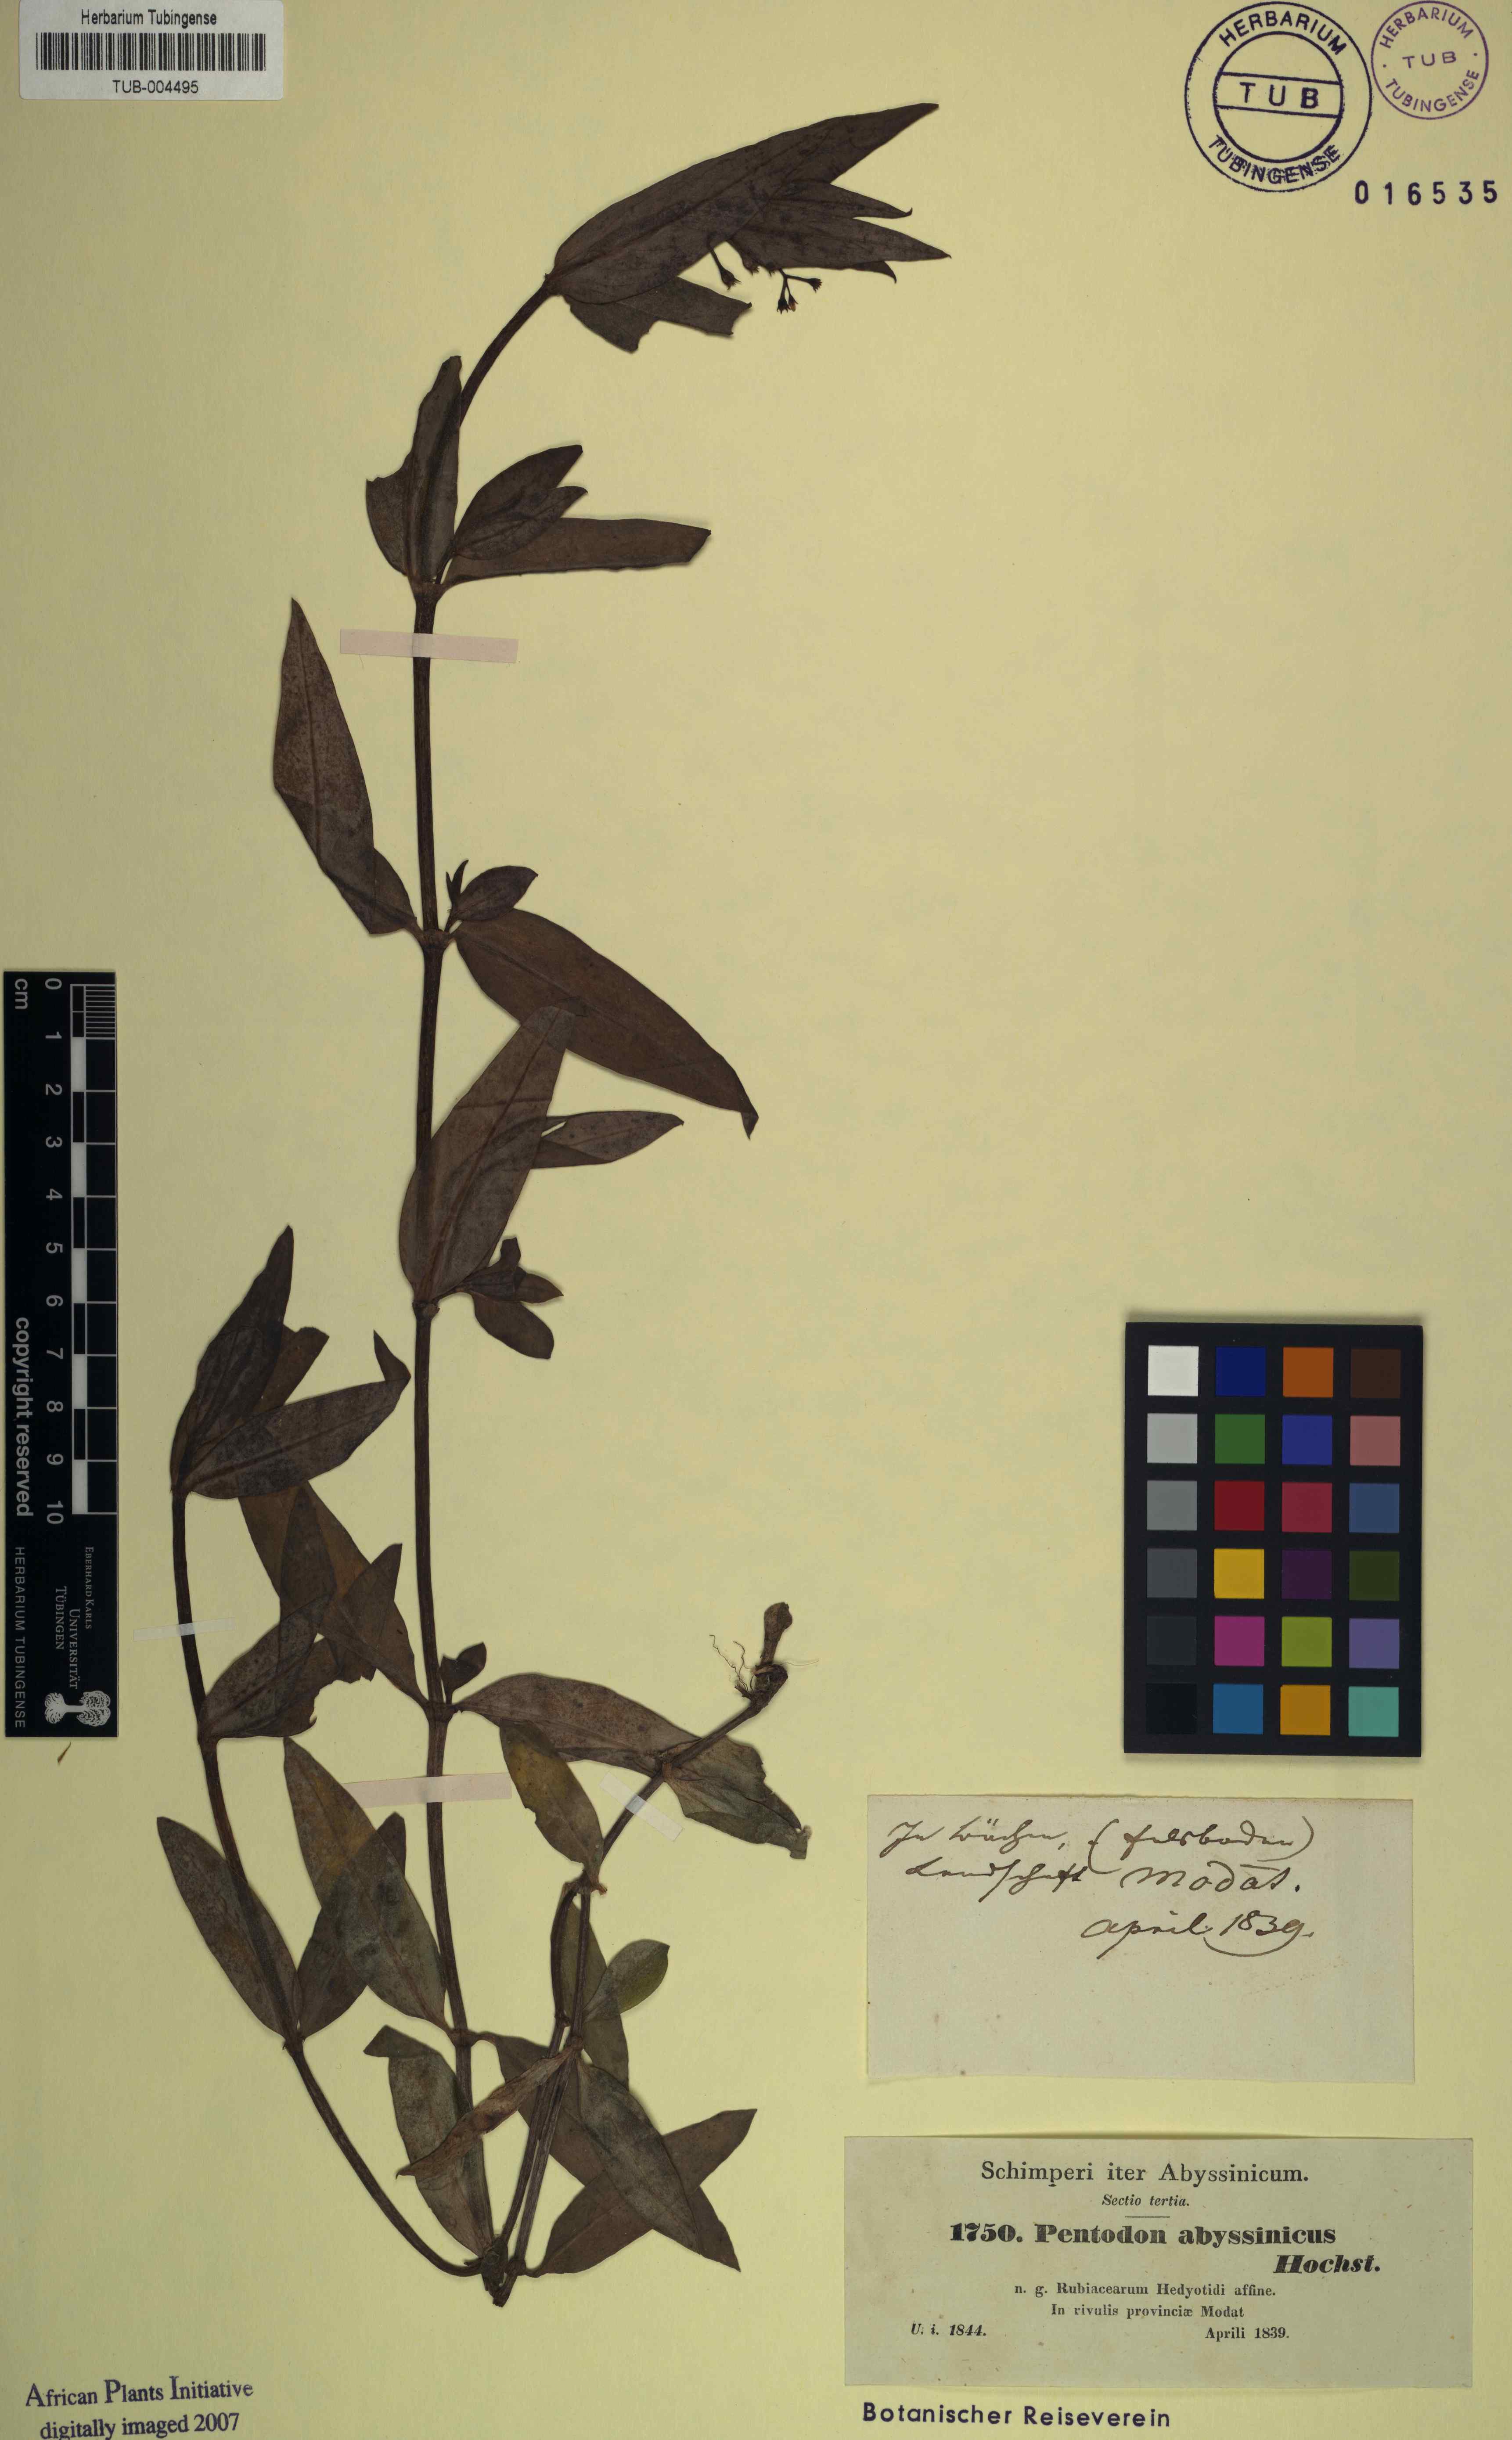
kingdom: Plantae
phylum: Tracheophyta
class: Magnoliopsida
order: Gentianales
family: Rubiaceae
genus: Pentodon
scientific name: Pentodon pentandrus
